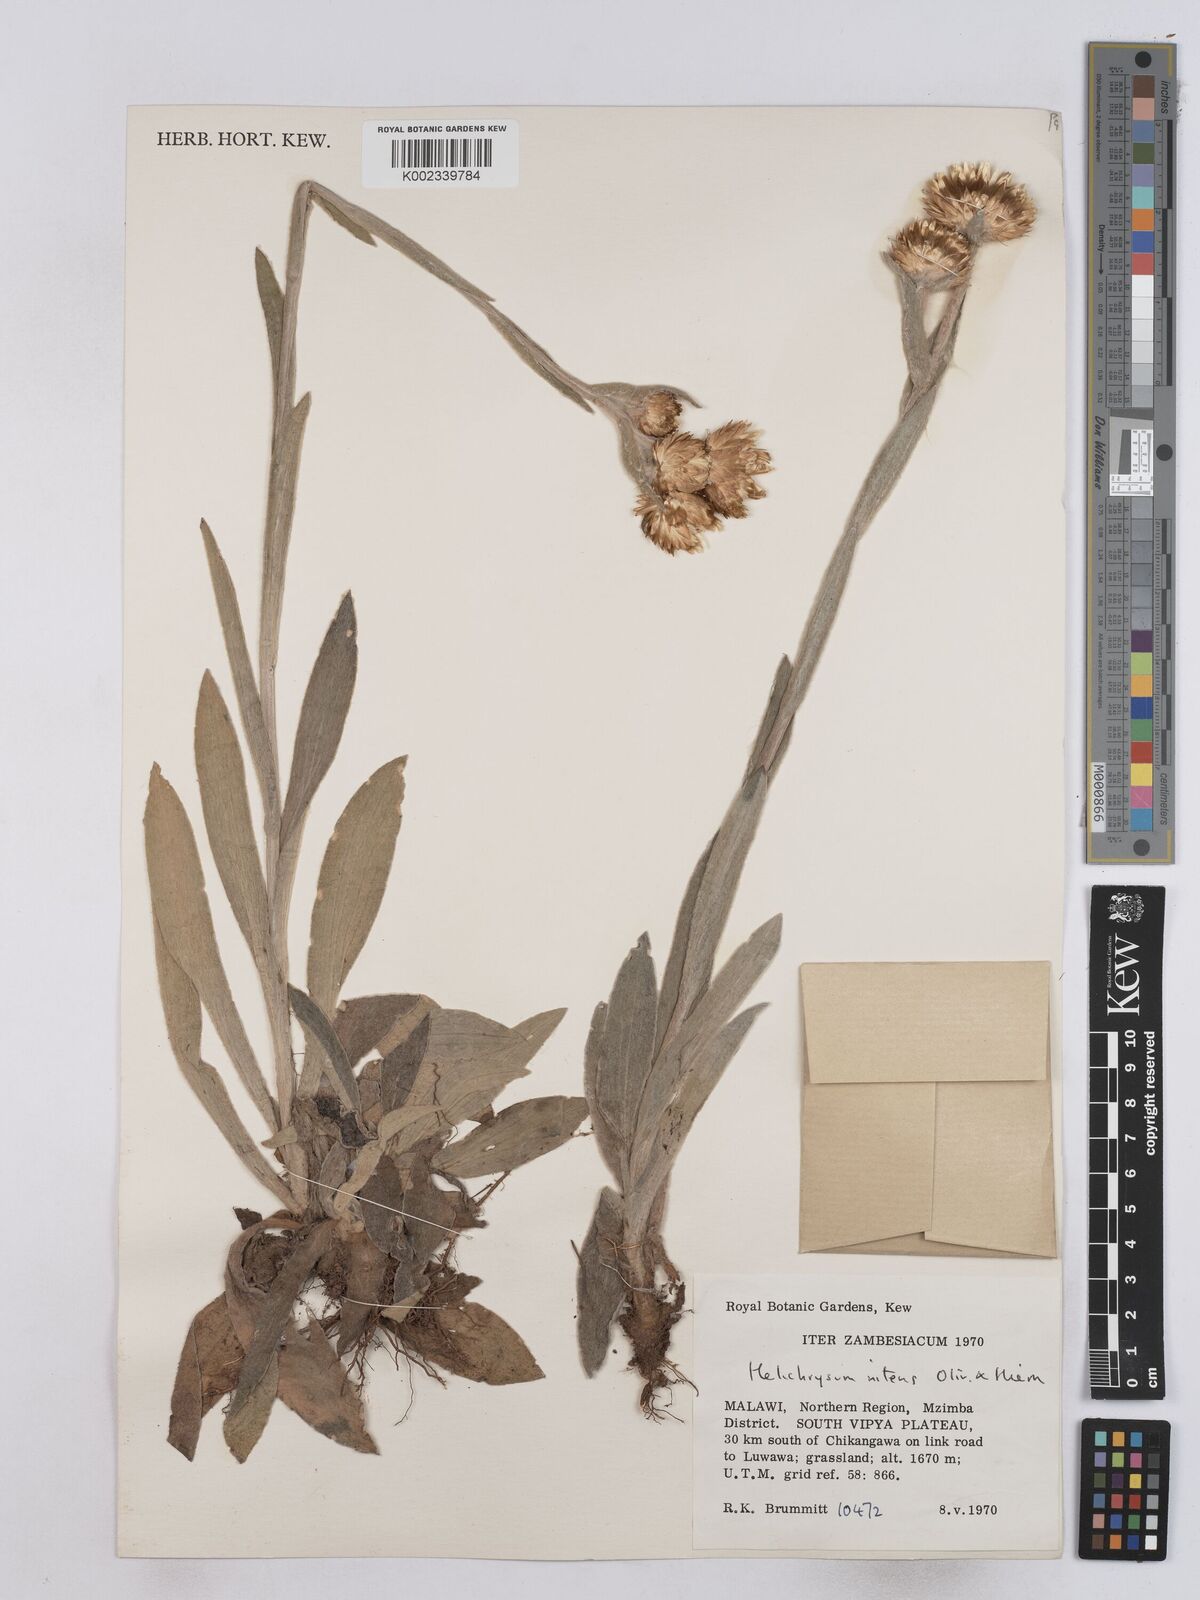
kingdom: Plantae
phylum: Tracheophyta
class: Magnoliopsida
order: Asterales
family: Asteraceae
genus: Helichrysum
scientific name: Helichrysum nitens
